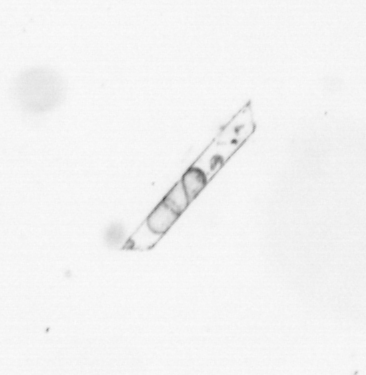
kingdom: Chromista
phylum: Ochrophyta
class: Bacillariophyceae
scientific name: Bacillariophyceae
